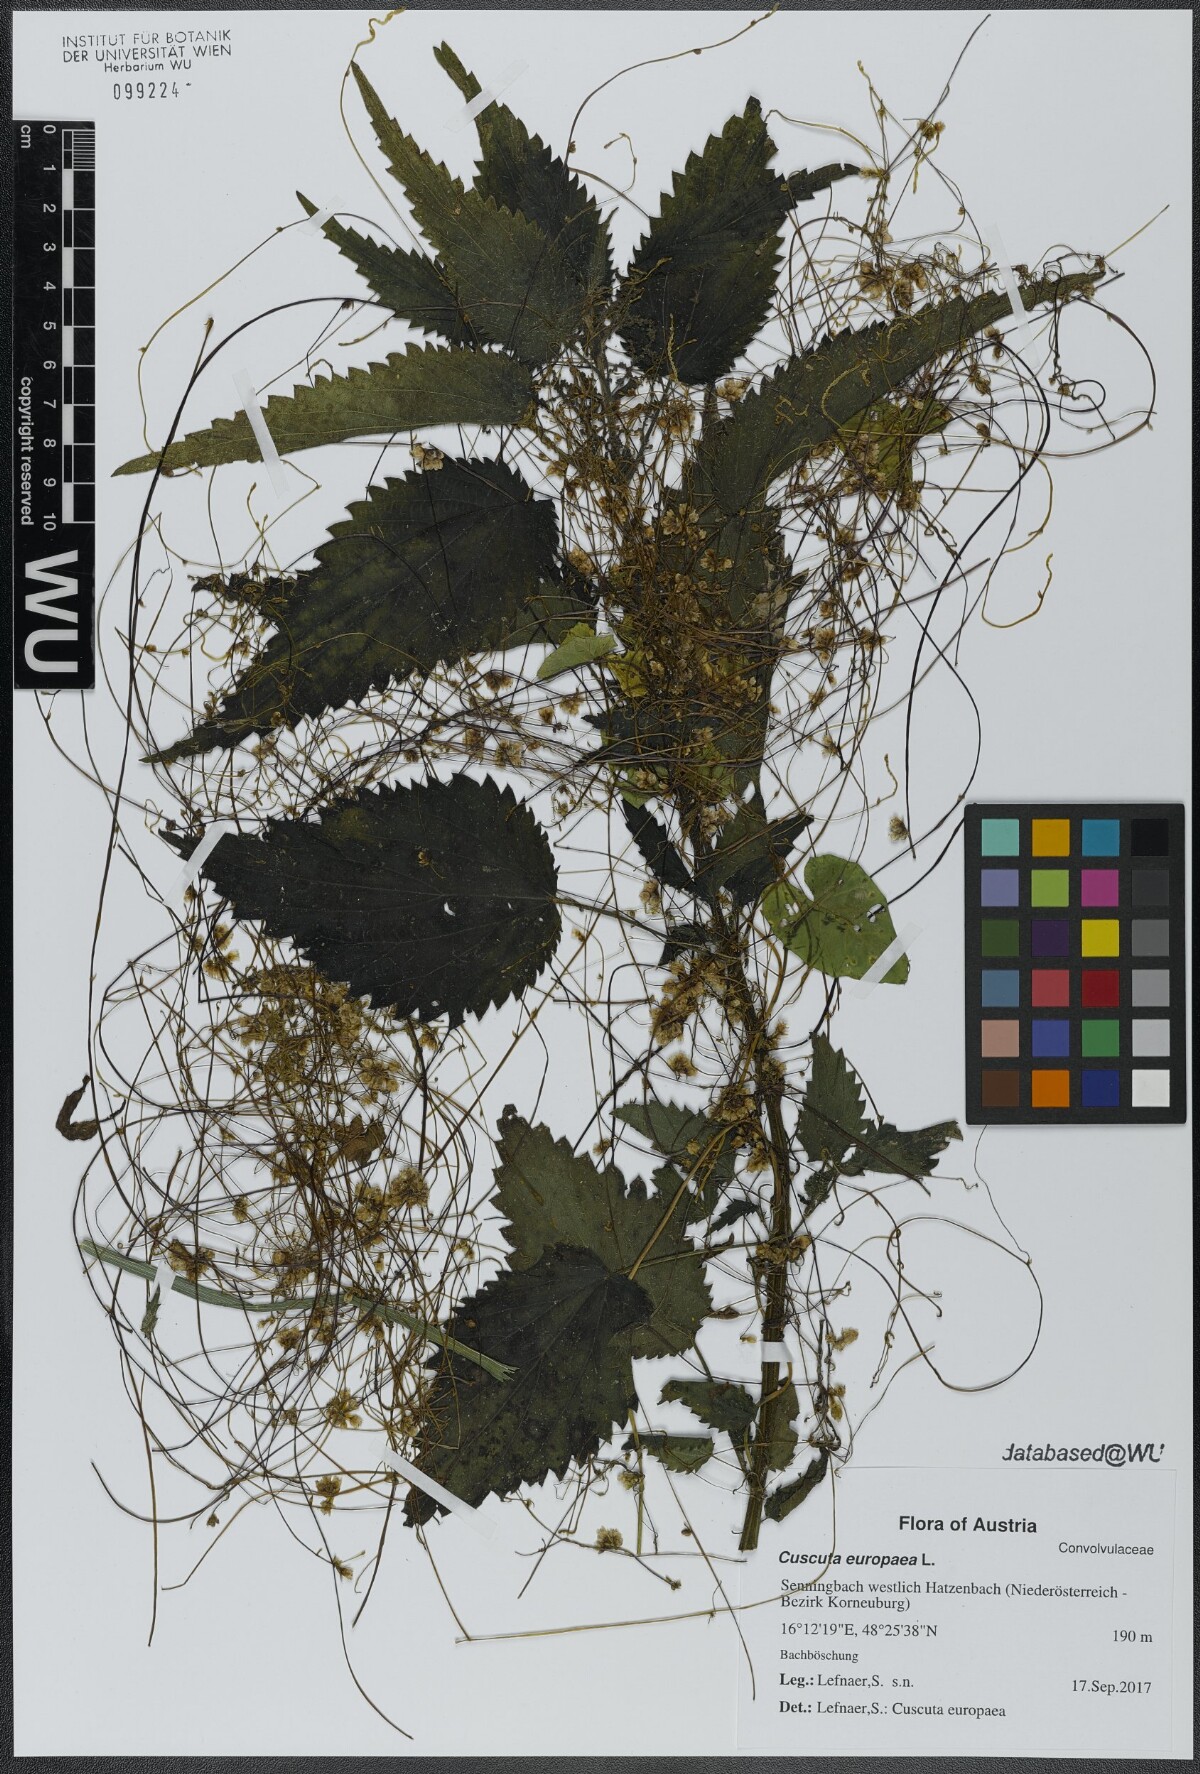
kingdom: Plantae
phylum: Tracheophyta
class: Magnoliopsida
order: Solanales
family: Convolvulaceae
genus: Cuscuta
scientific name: Cuscuta europaea
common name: Greater dodder
